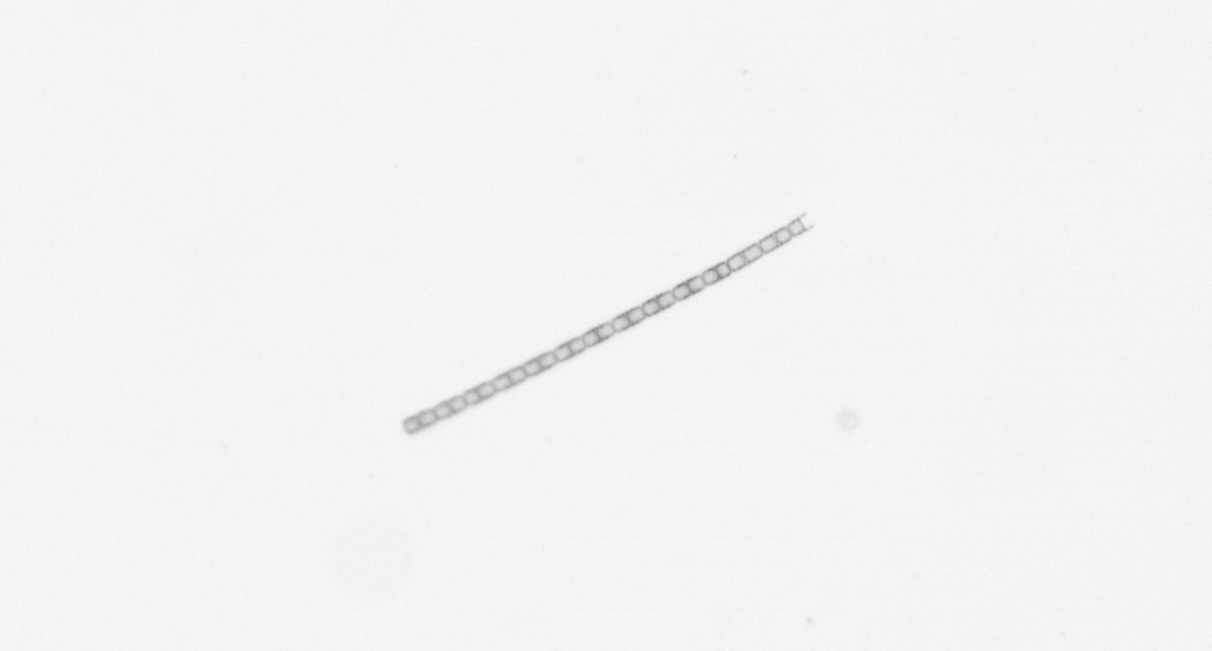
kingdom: Chromista
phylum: Ochrophyta
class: Bacillariophyceae
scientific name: Bacillariophyceae
